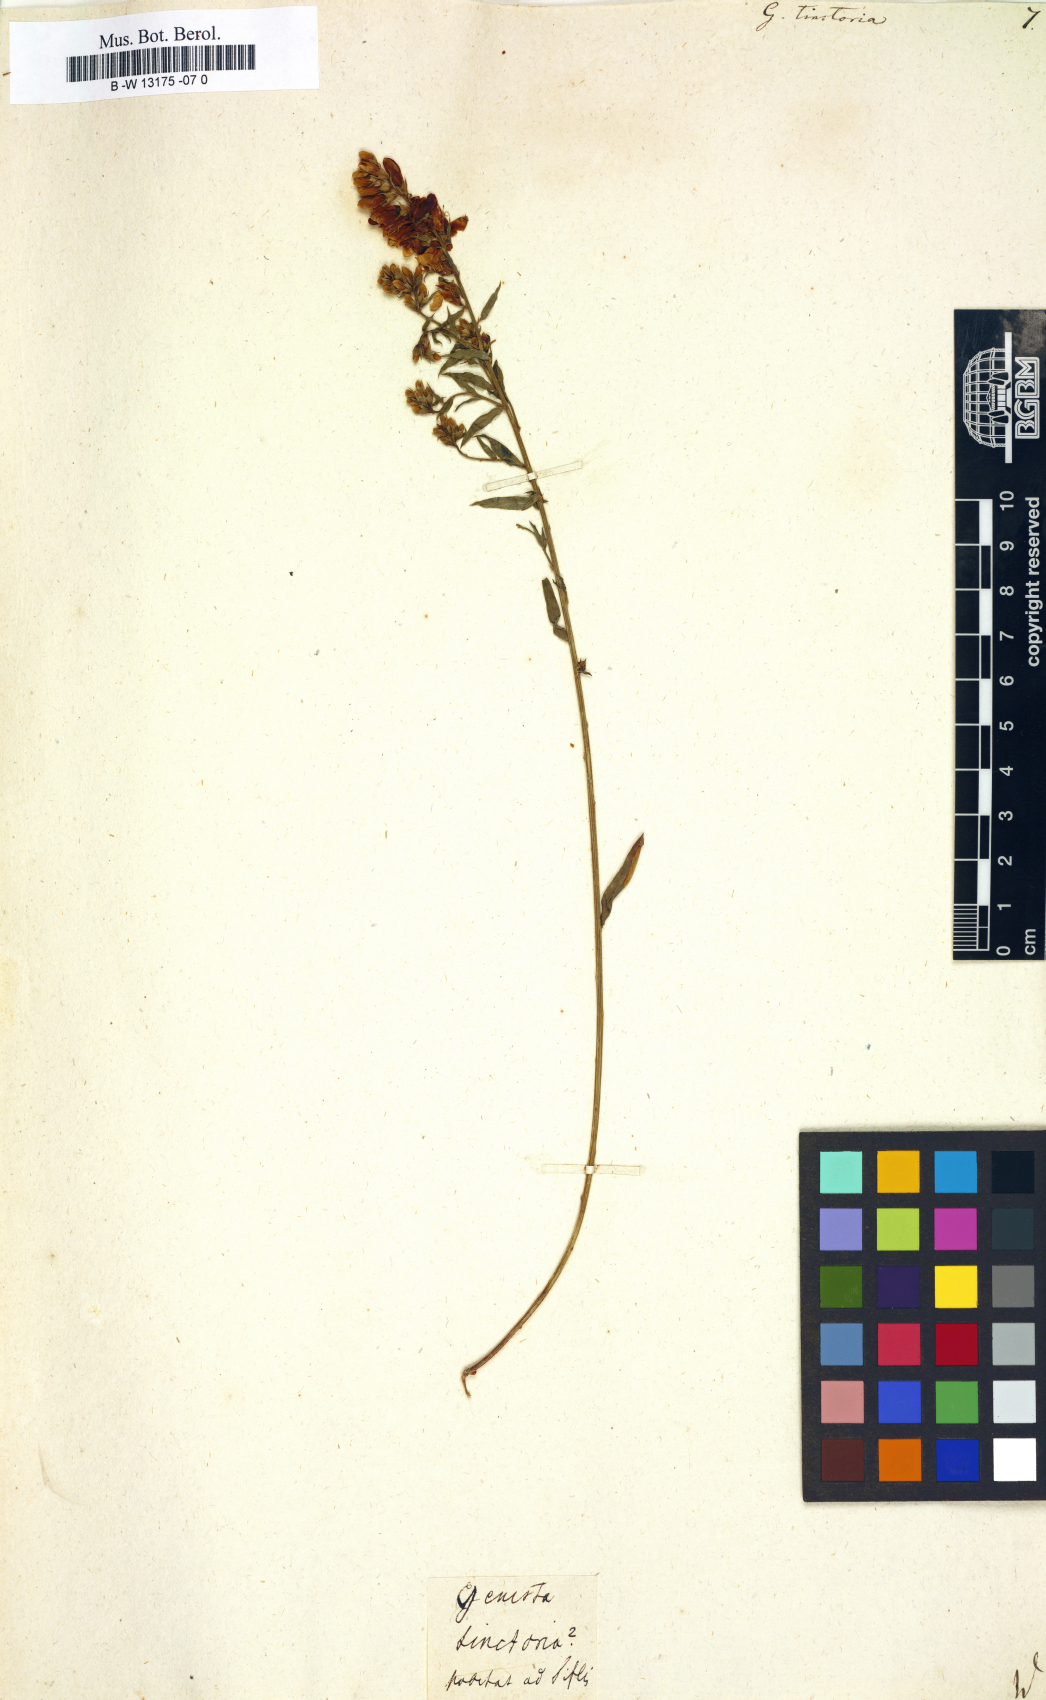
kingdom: Plantae
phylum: Tracheophyta
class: Magnoliopsida
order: Fabales
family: Fabaceae
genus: Genista
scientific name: Genista tinctoria
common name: Dyer's greenweed
